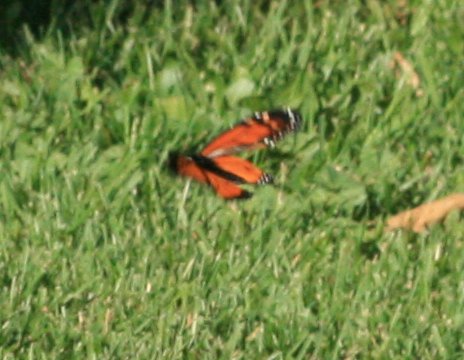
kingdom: Animalia
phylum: Arthropoda
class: Insecta
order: Lepidoptera
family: Nymphalidae
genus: Danaus
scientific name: Danaus plexippus
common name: Monarch
